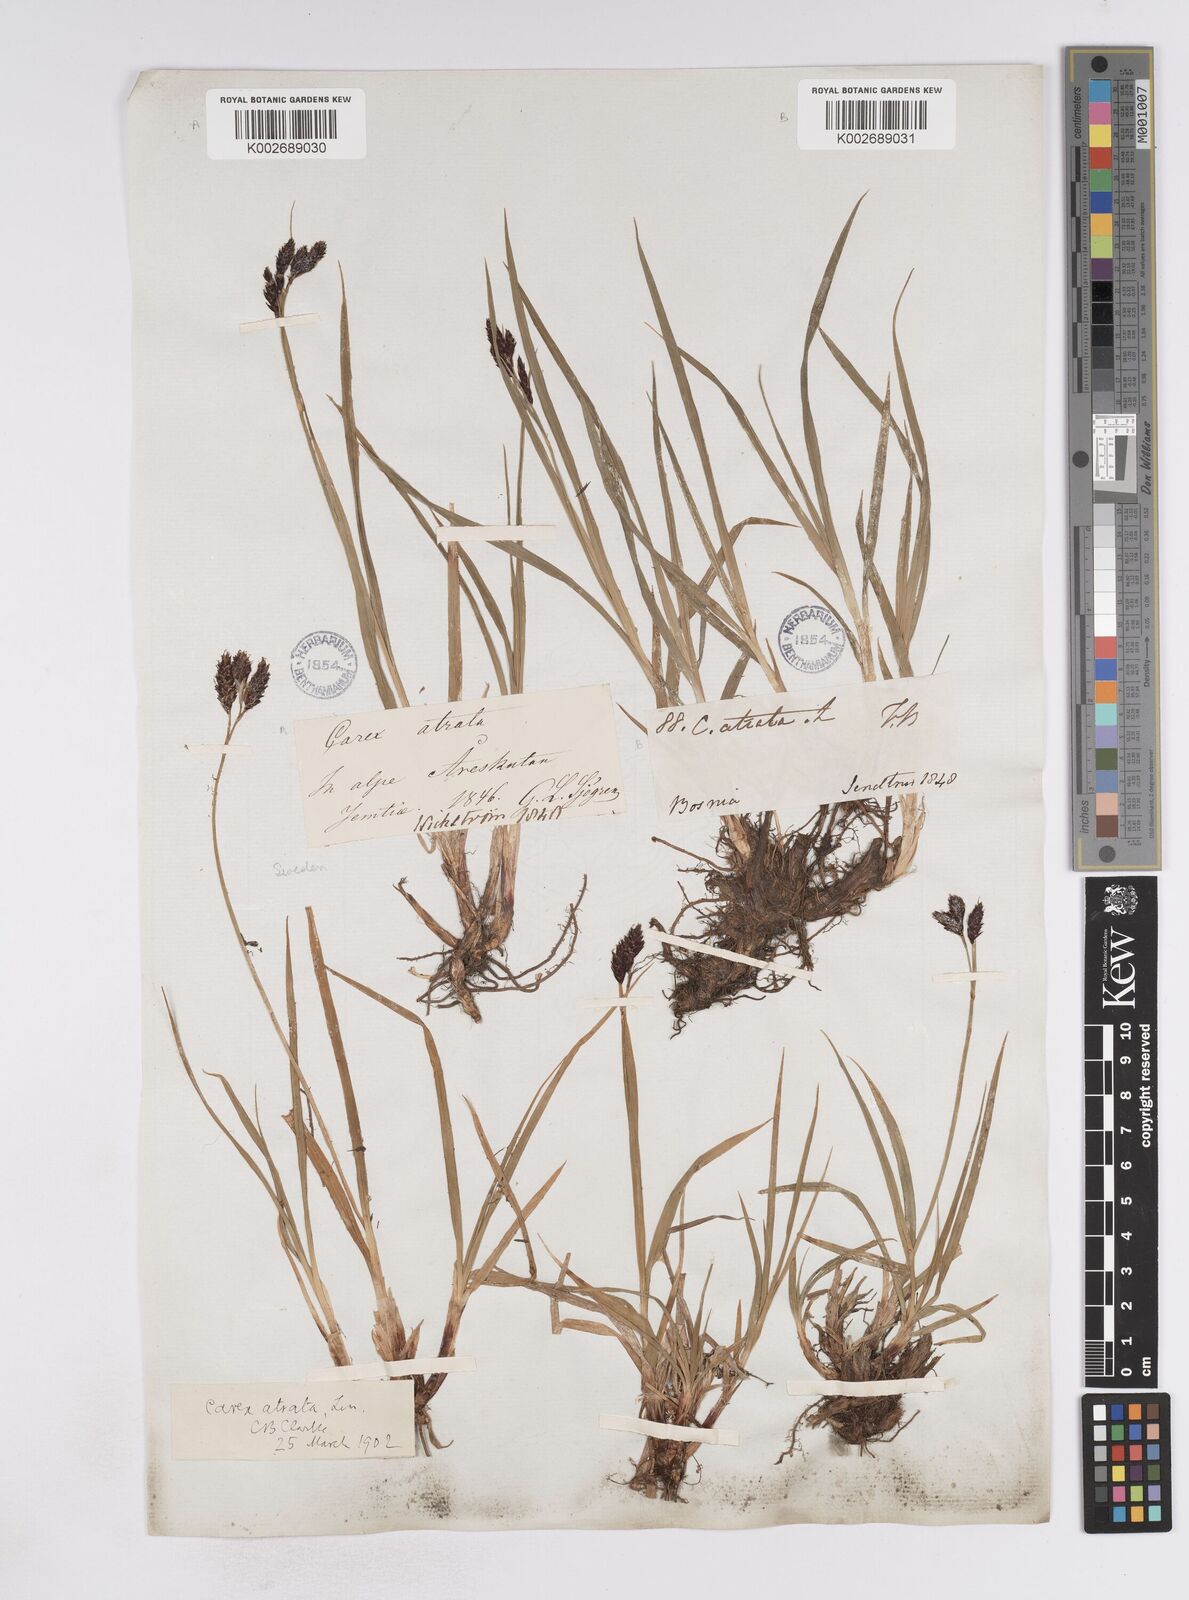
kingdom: Plantae
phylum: Tracheophyta
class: Liliopsida
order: Poales
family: Cyperaceae
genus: Carex
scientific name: Carex atrata
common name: Black alpine sedge
